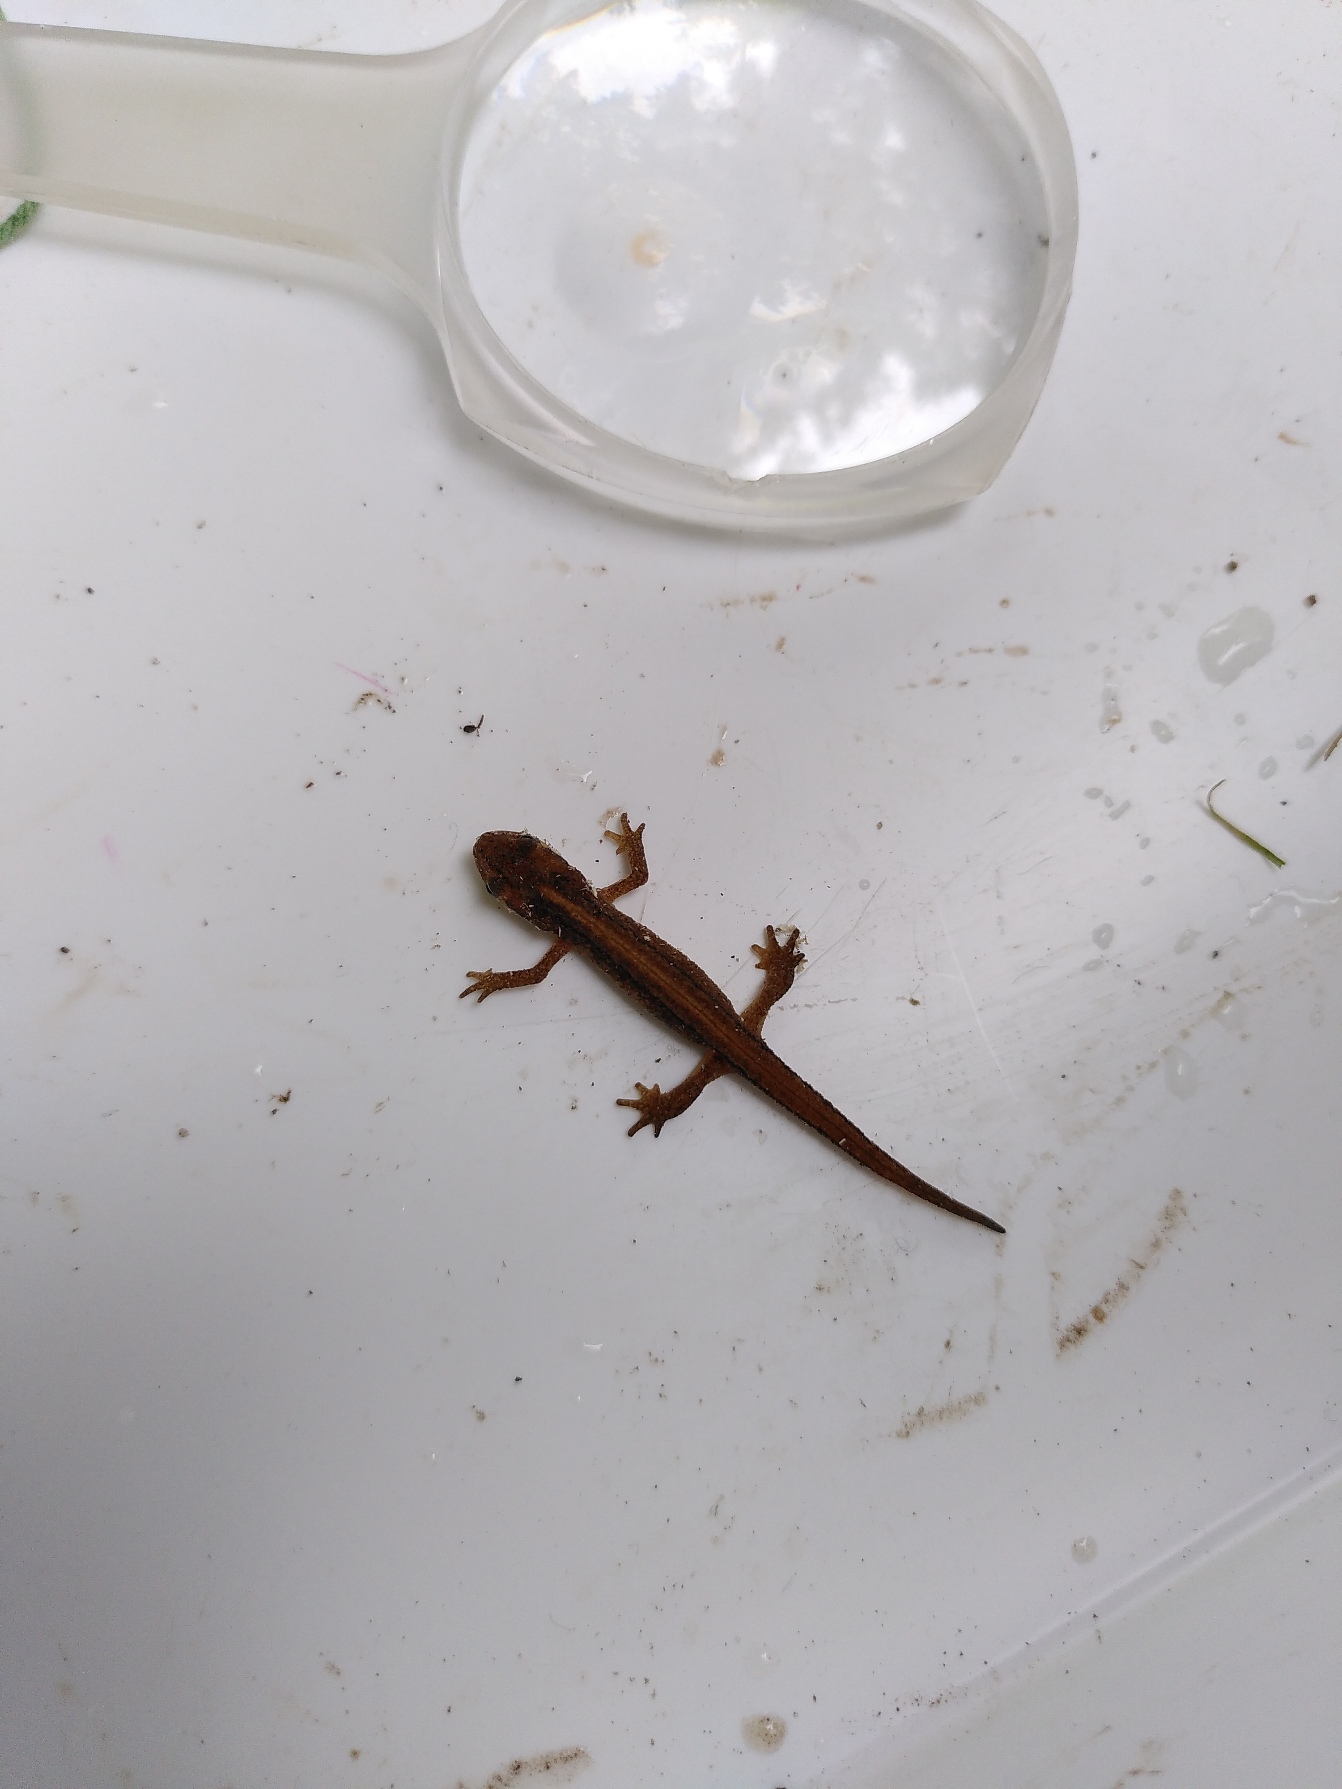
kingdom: Animalia
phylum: Chordata
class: Amphibia
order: Caudata
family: Salamandridae
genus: Lissotriton
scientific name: Lissotriton vulgaris
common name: Lille vandsalamander
